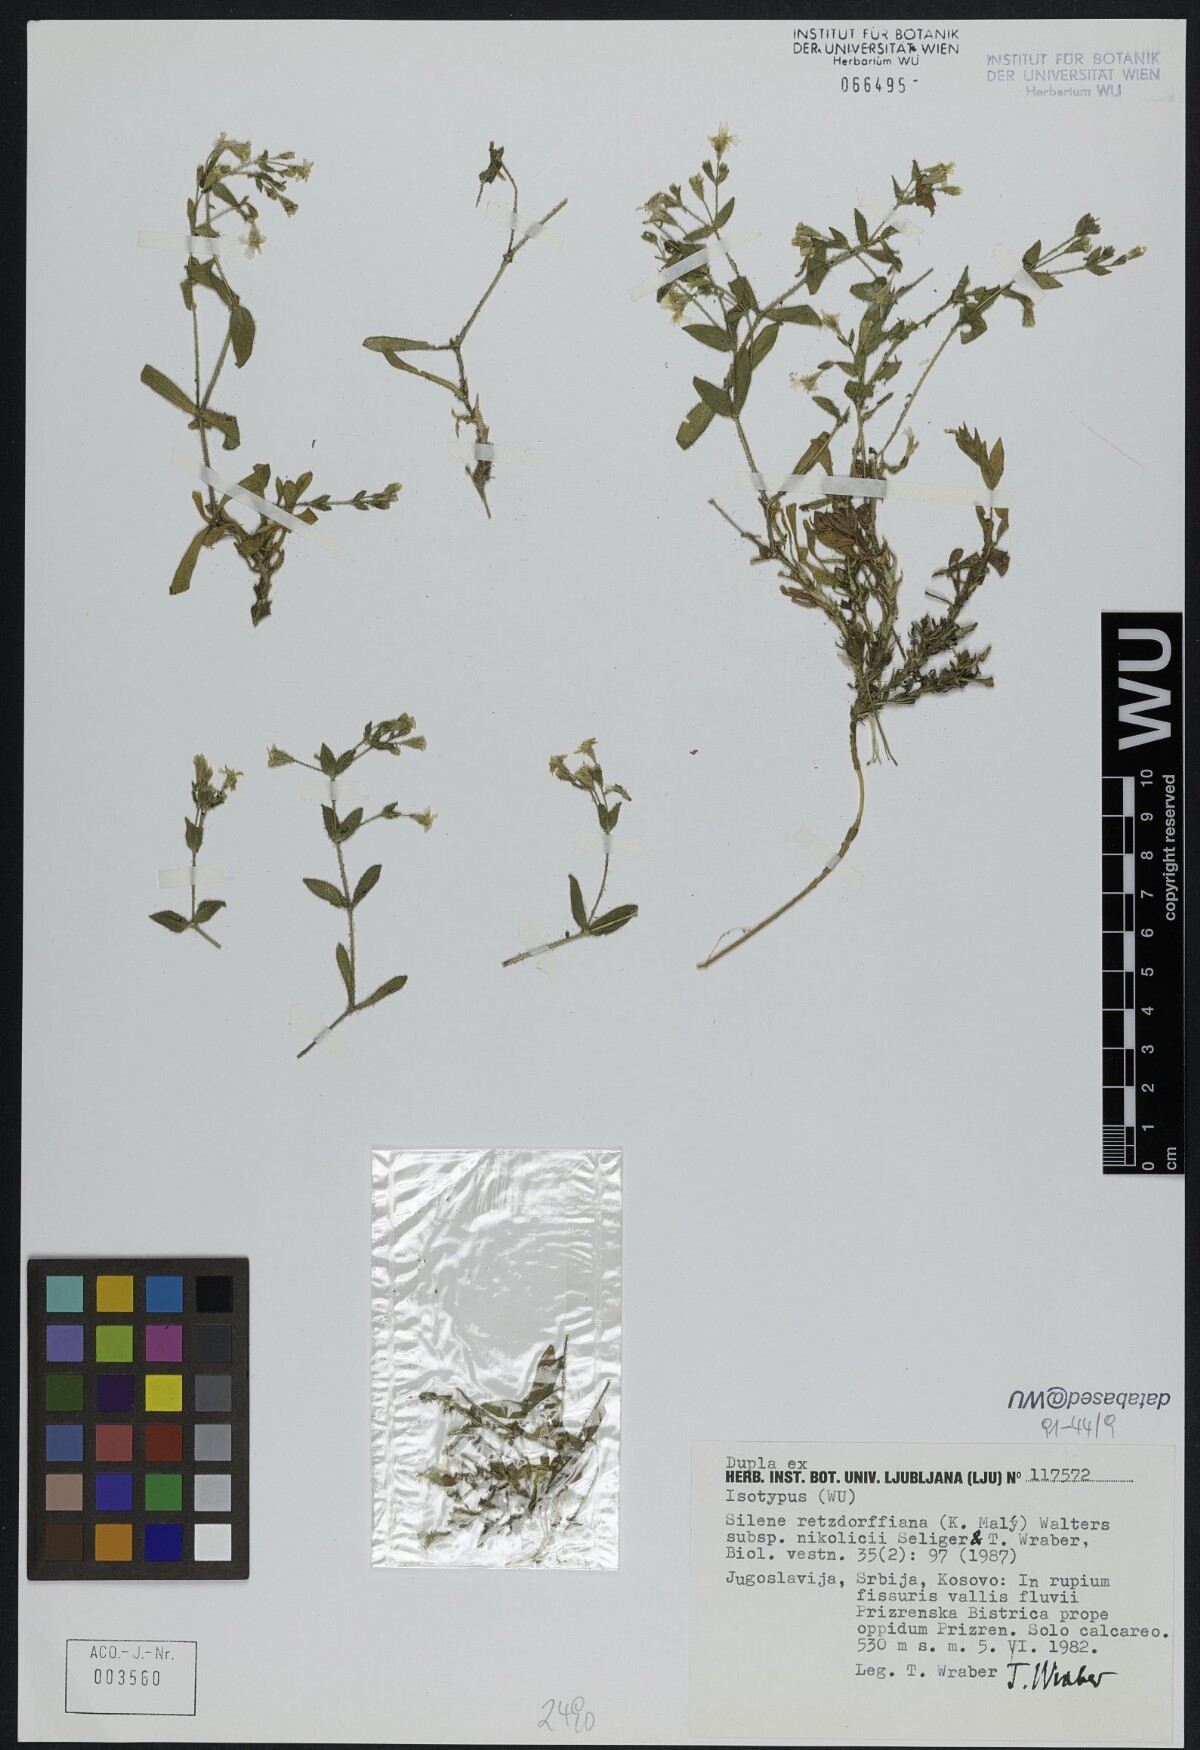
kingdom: Plantae
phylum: Tracheophyta
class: Magnoliopsida
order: Caryophyllales
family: Caryophyllaceae
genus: Heliosperma
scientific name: Heliosperma pusillum
